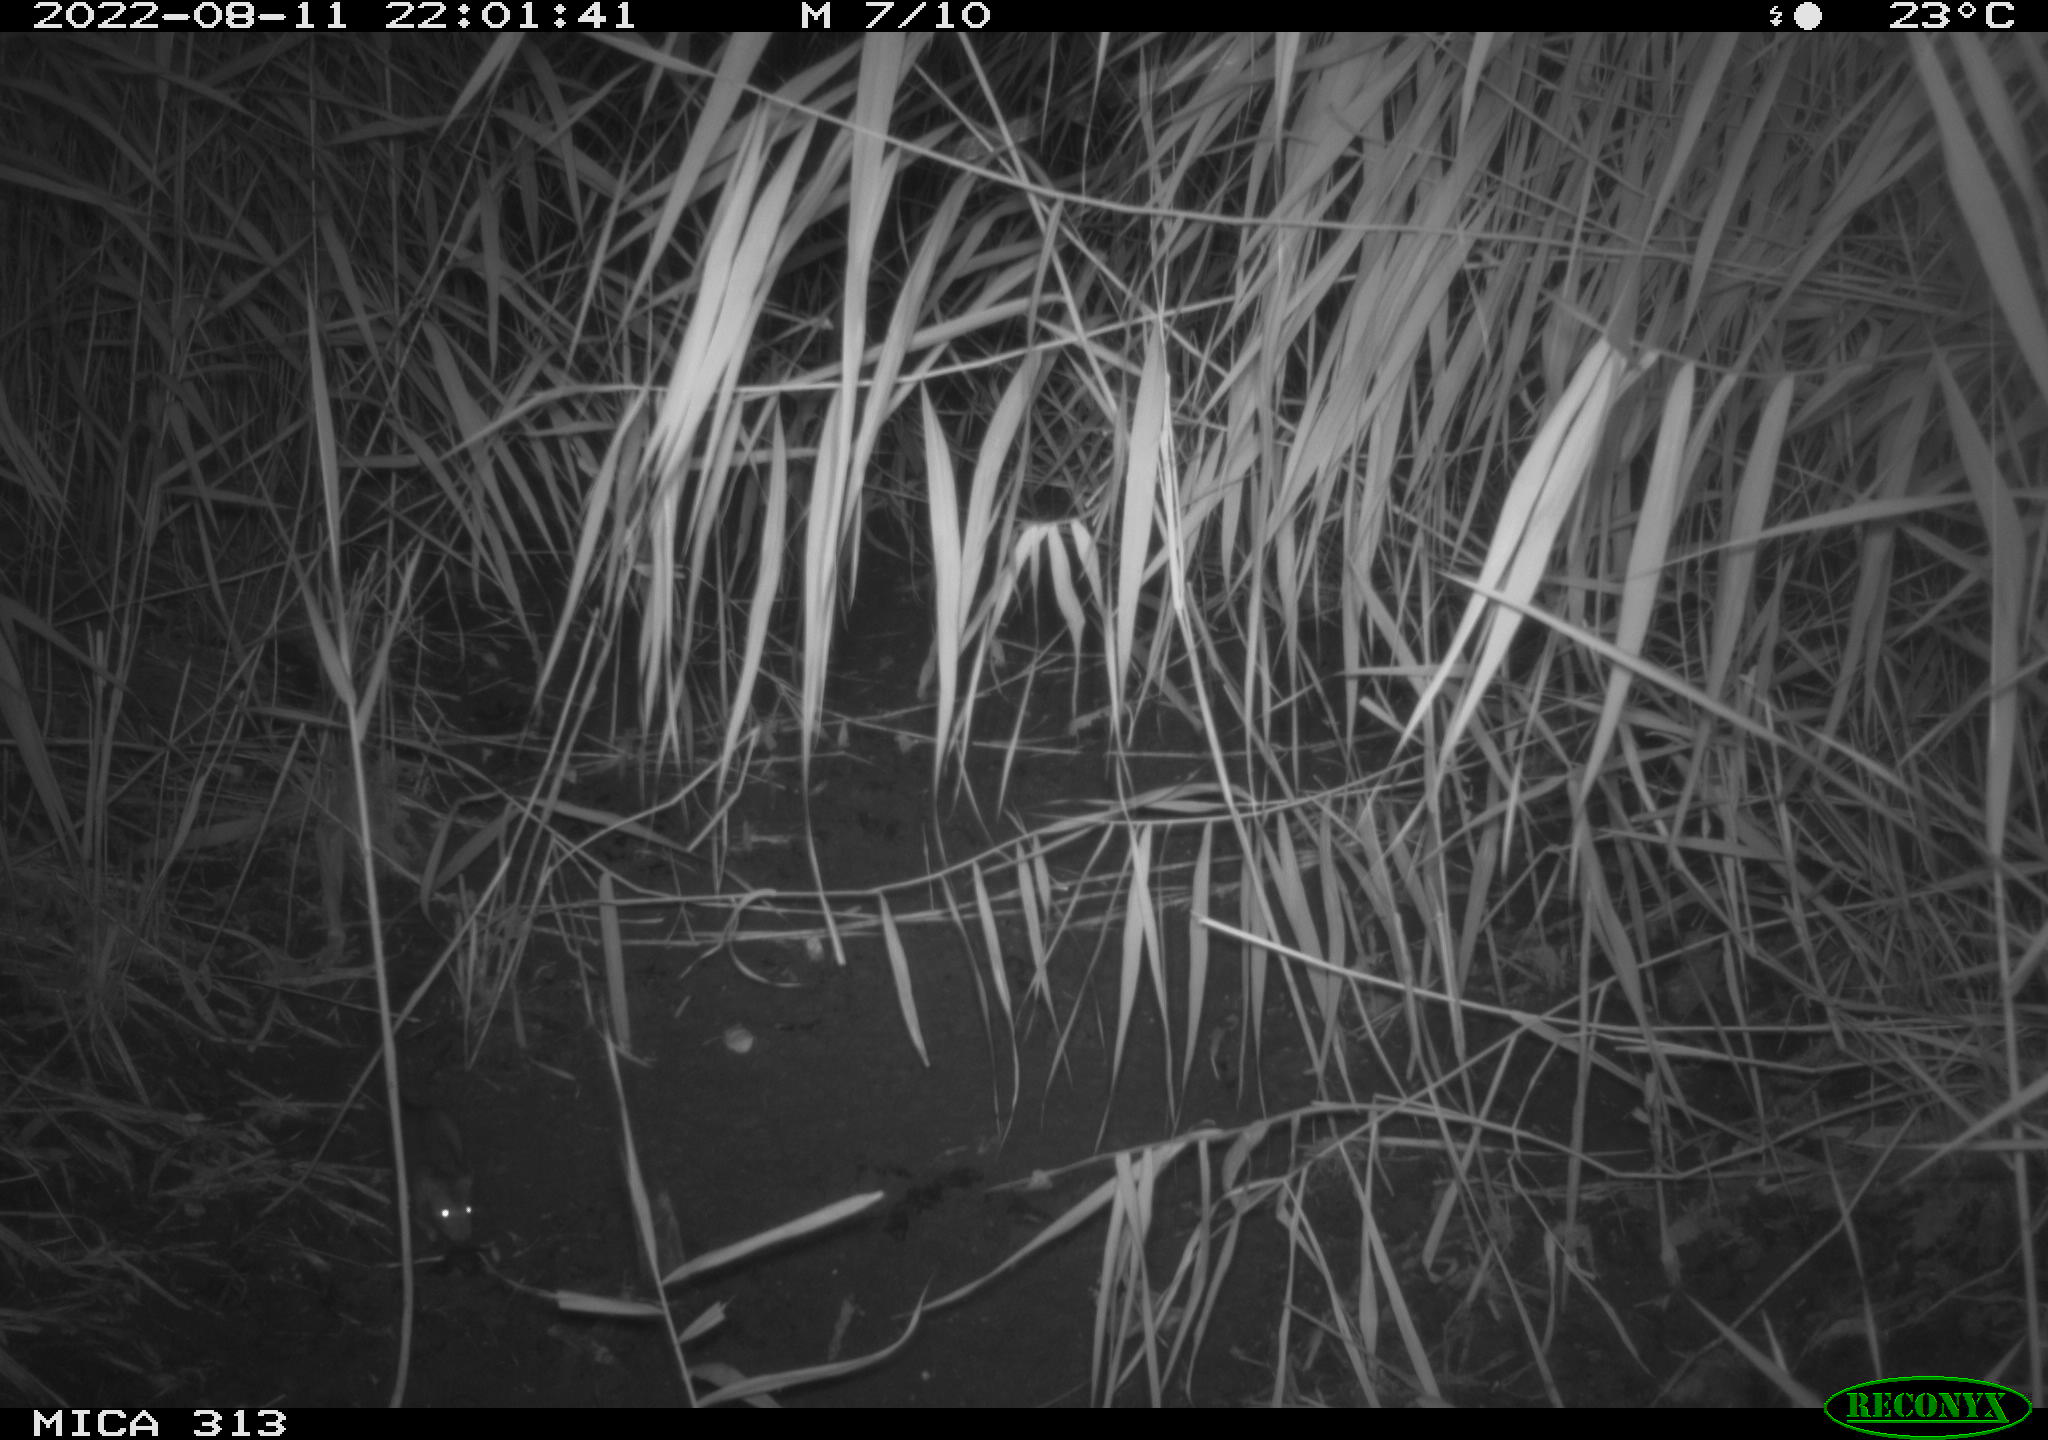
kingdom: Animalia
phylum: Chordata
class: Mammalia
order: Rodentia
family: Muridae
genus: Rattus
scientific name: Rattus norvegicus
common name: Brown rat
